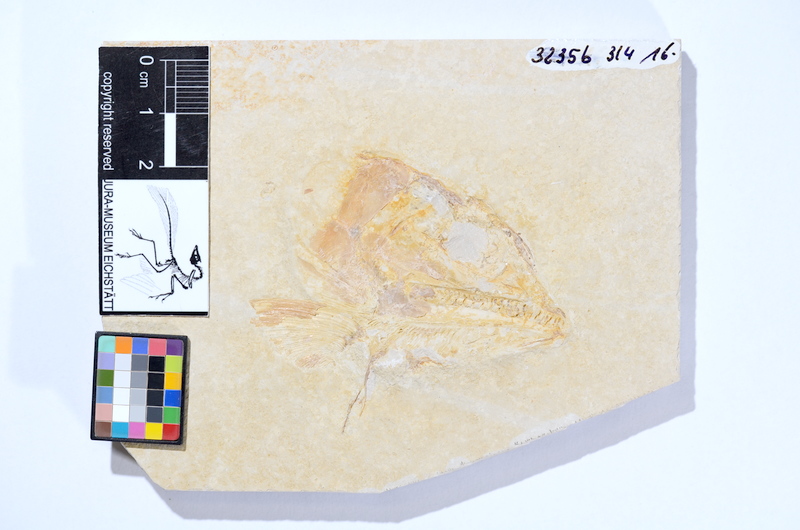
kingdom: Animalia
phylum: Chordata
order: Amiiformes
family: Caturidae
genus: Caturus
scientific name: Caturus
